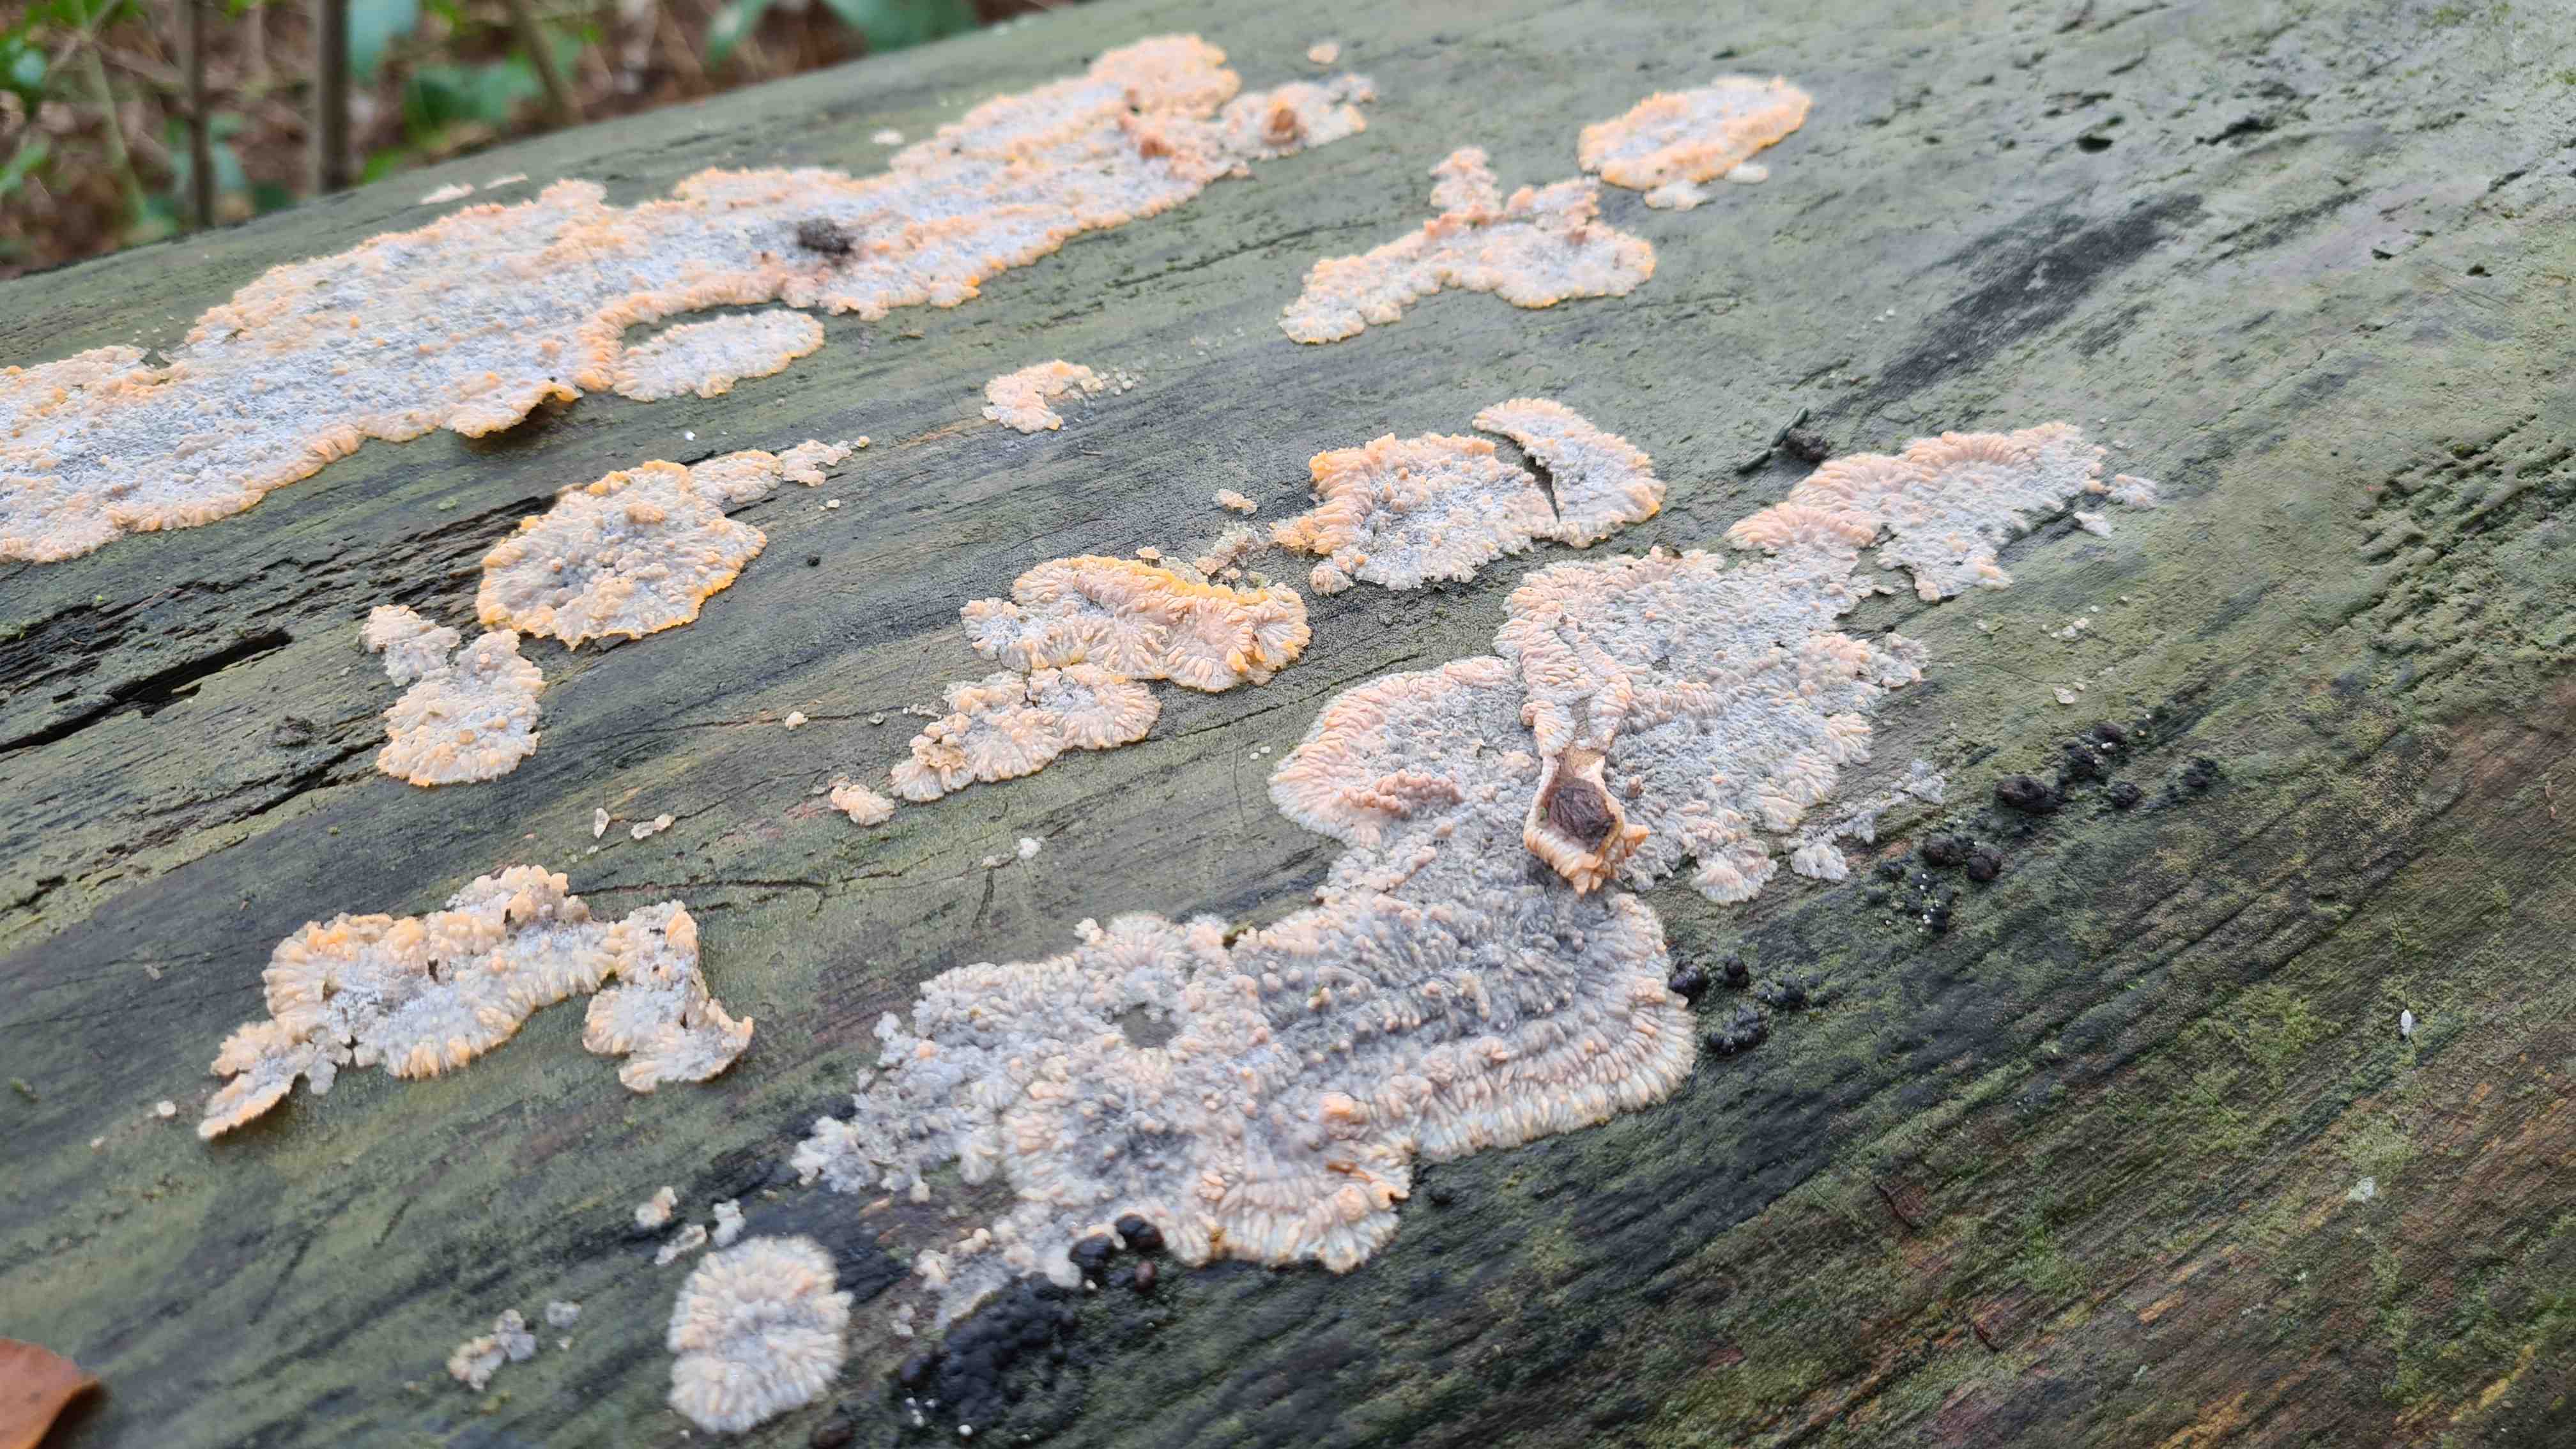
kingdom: Fungi
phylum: Basidiomycota
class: Agaricomycetes
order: Polyporales
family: Meruliaceae
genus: Phlebia
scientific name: Phlebia radiata
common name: stråle-åresvamp
